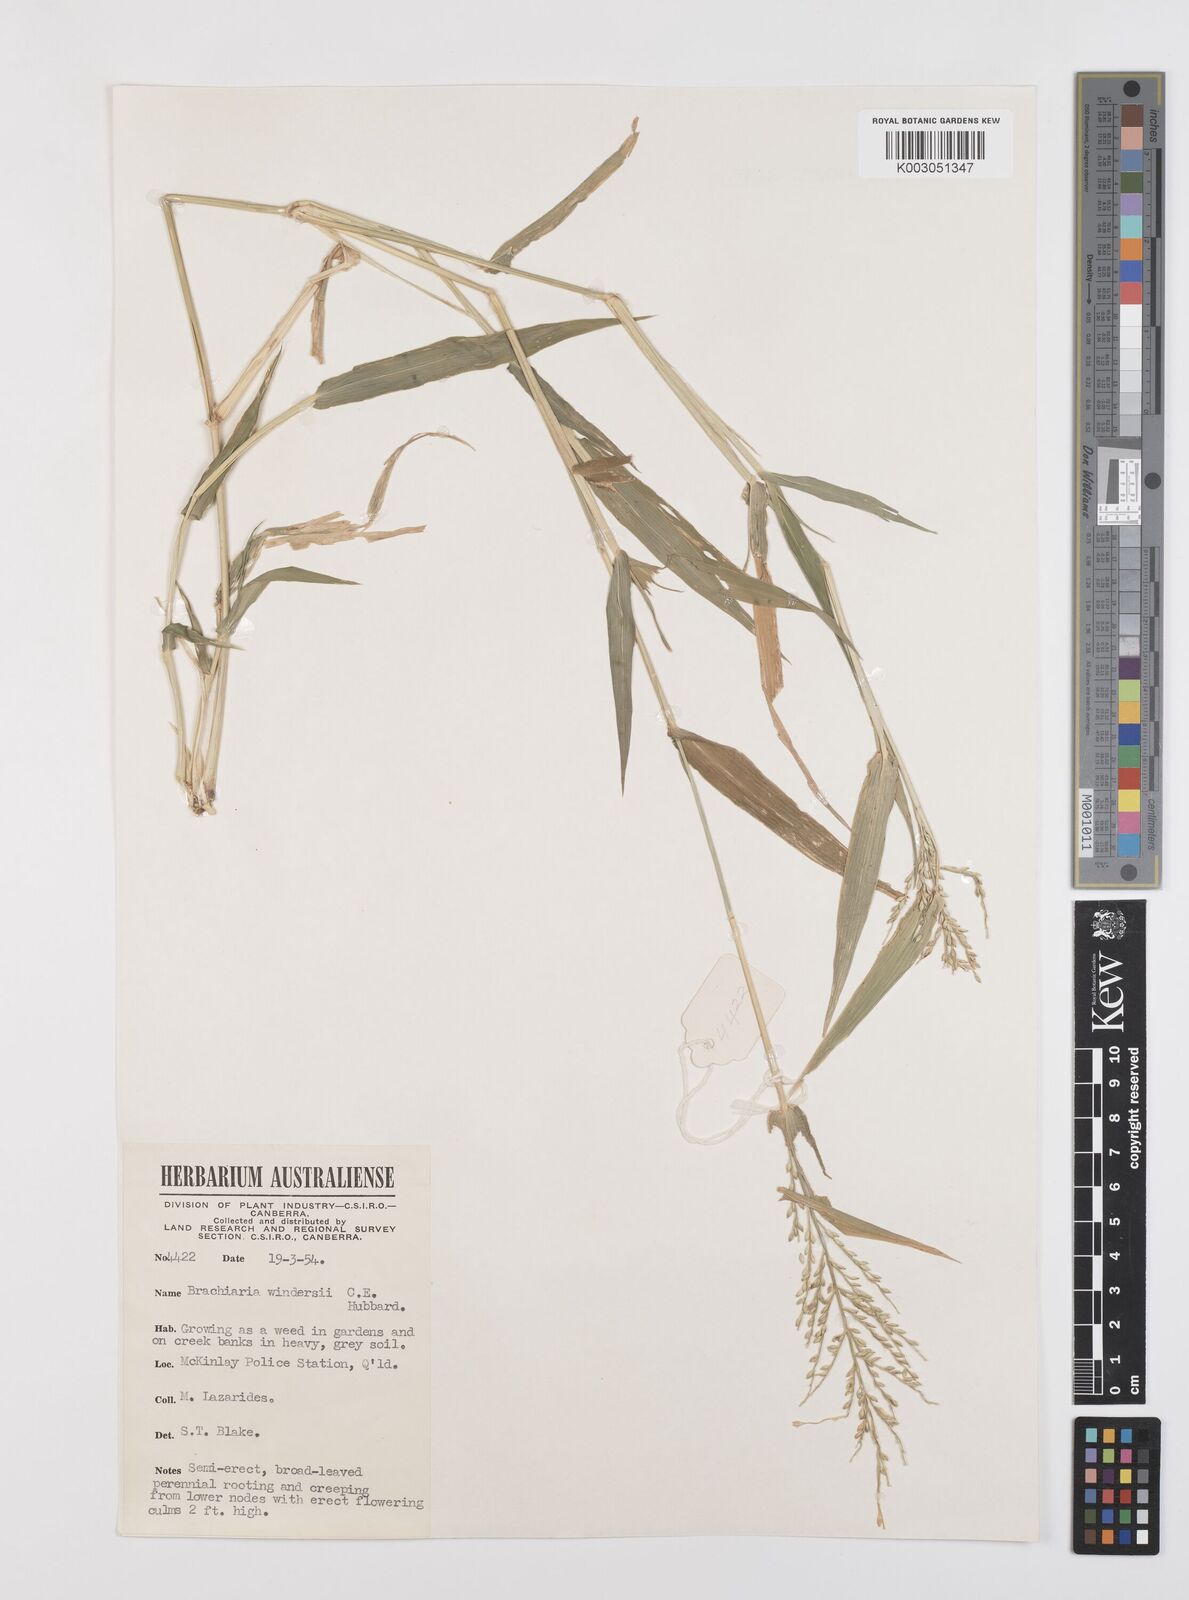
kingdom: Plantae
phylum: Tracheophyta
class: Liliopsida
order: Poales
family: Poaceae
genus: Urochloa
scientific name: Urochloa whiteana
